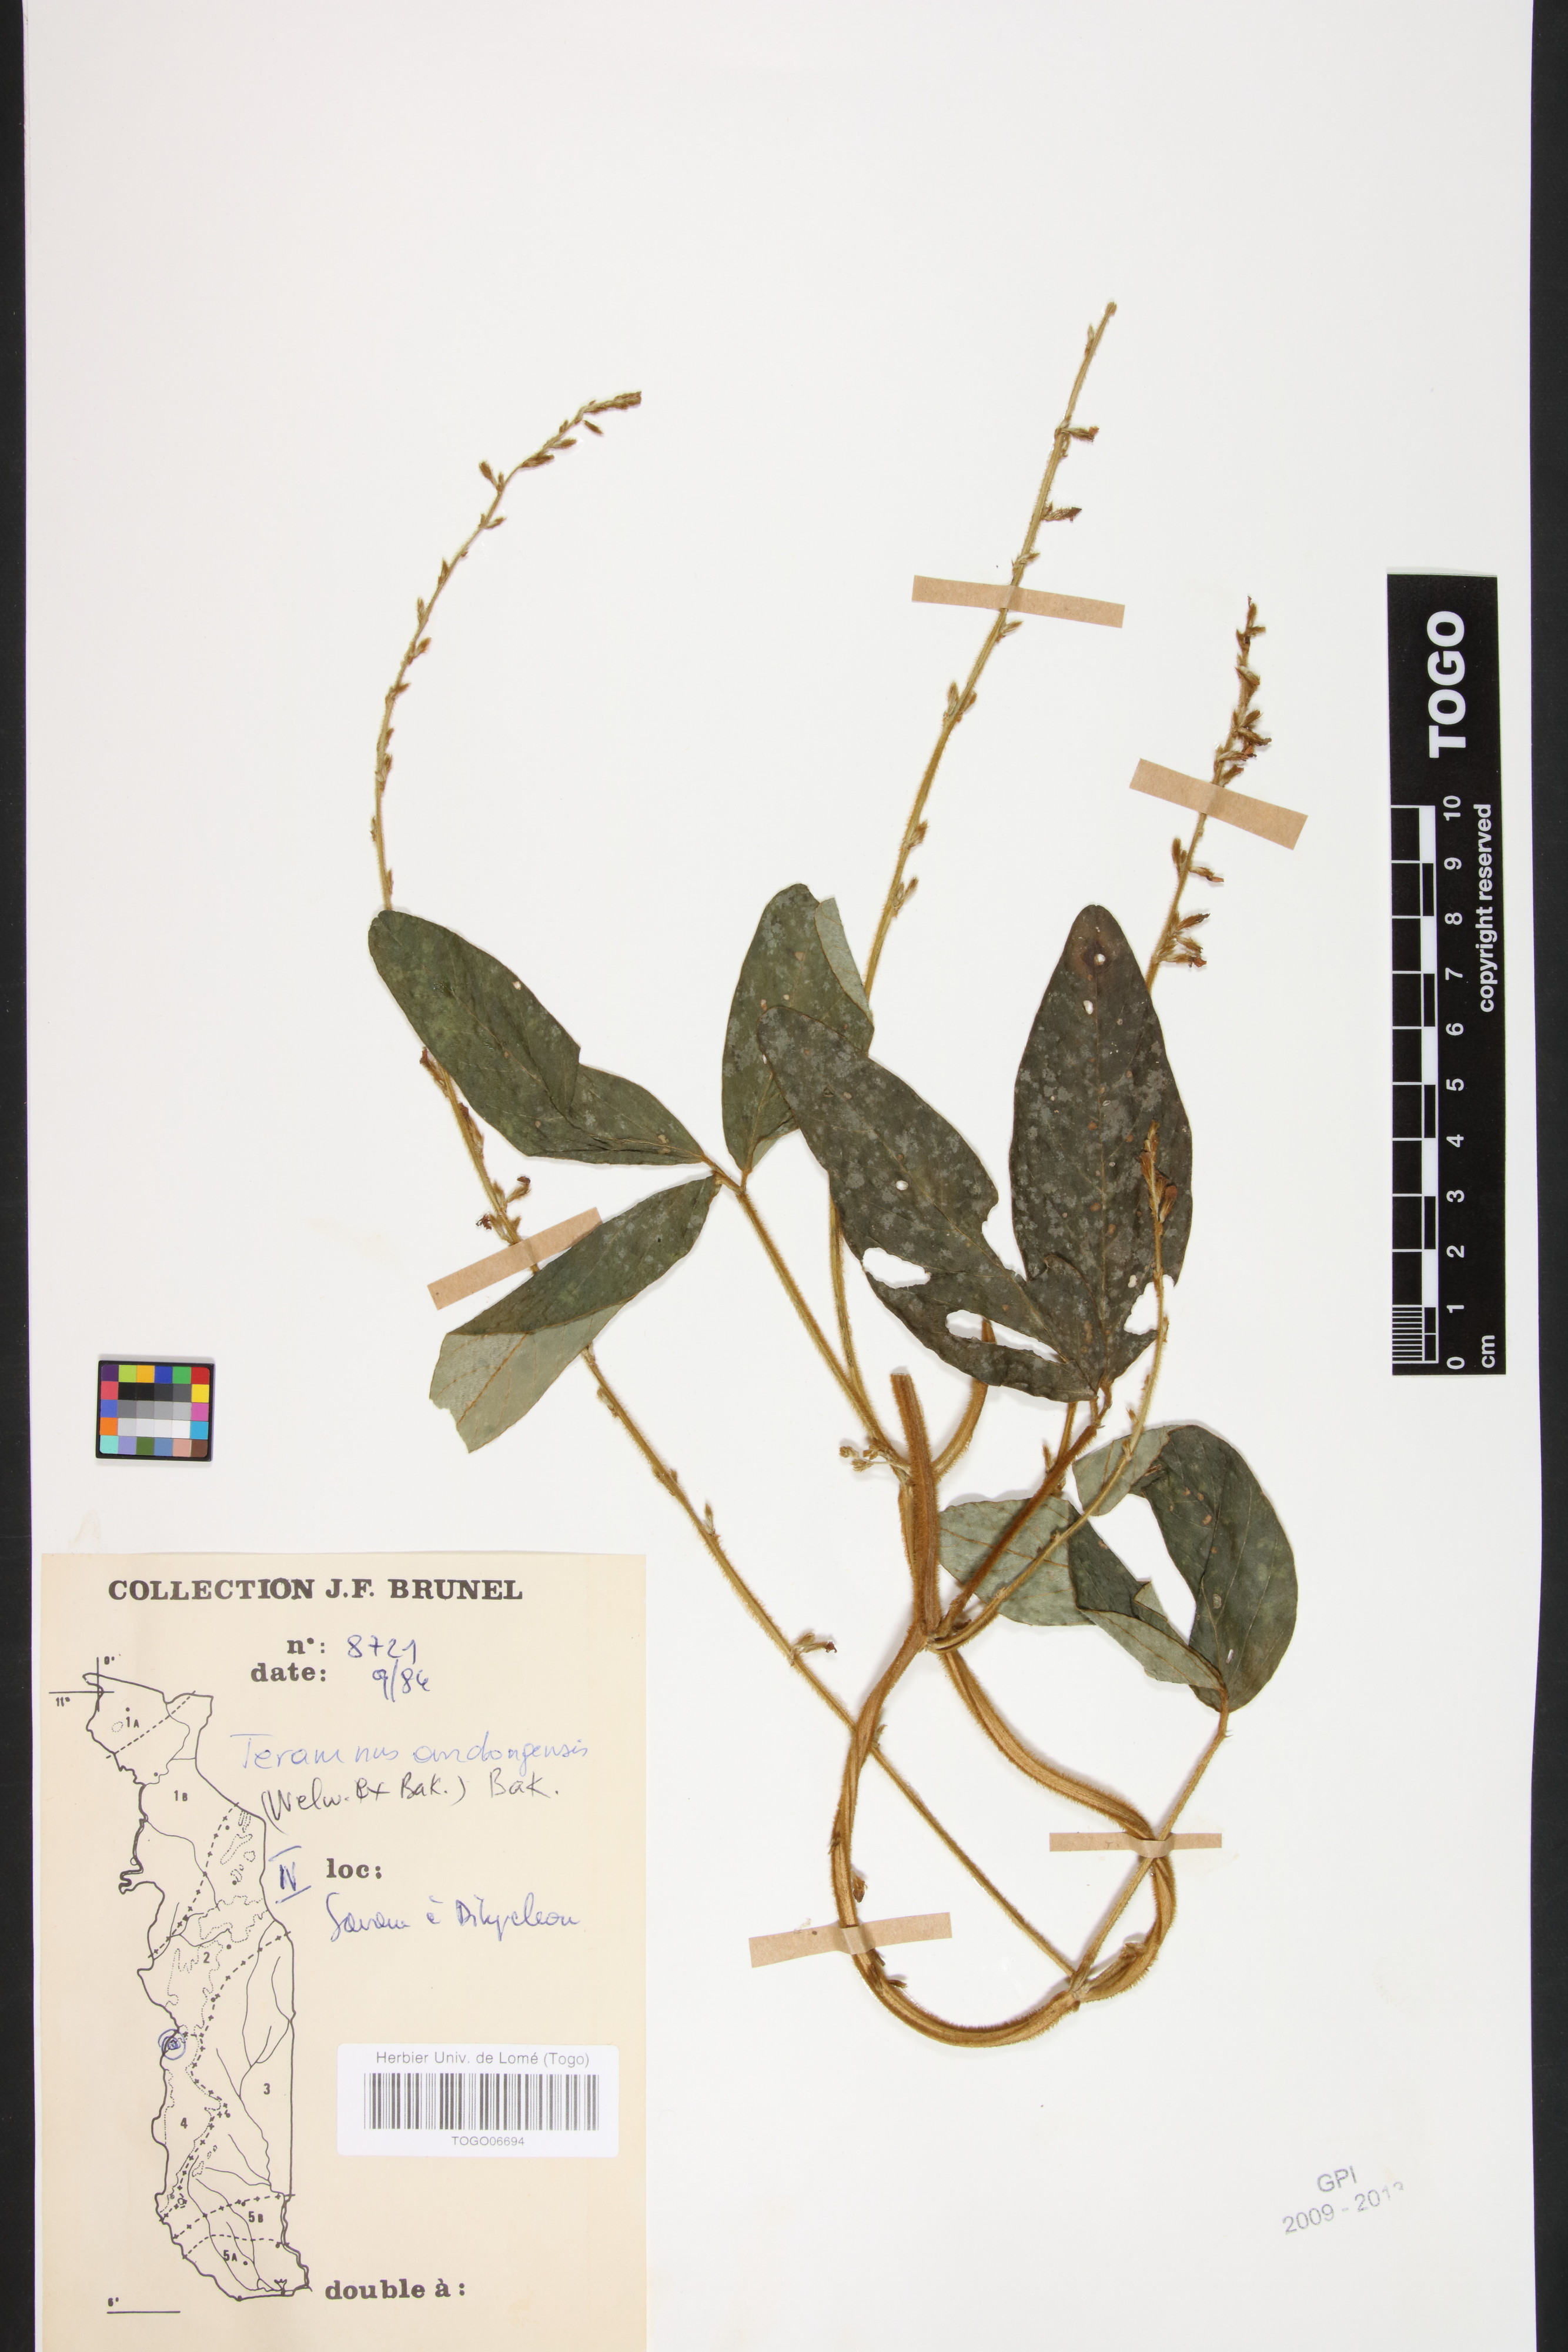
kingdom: Plantae
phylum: Tracheophyta
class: Magnoliopsida
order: Fabales
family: Fabaceae
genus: Teramnus
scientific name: Teramnus uncinatus
